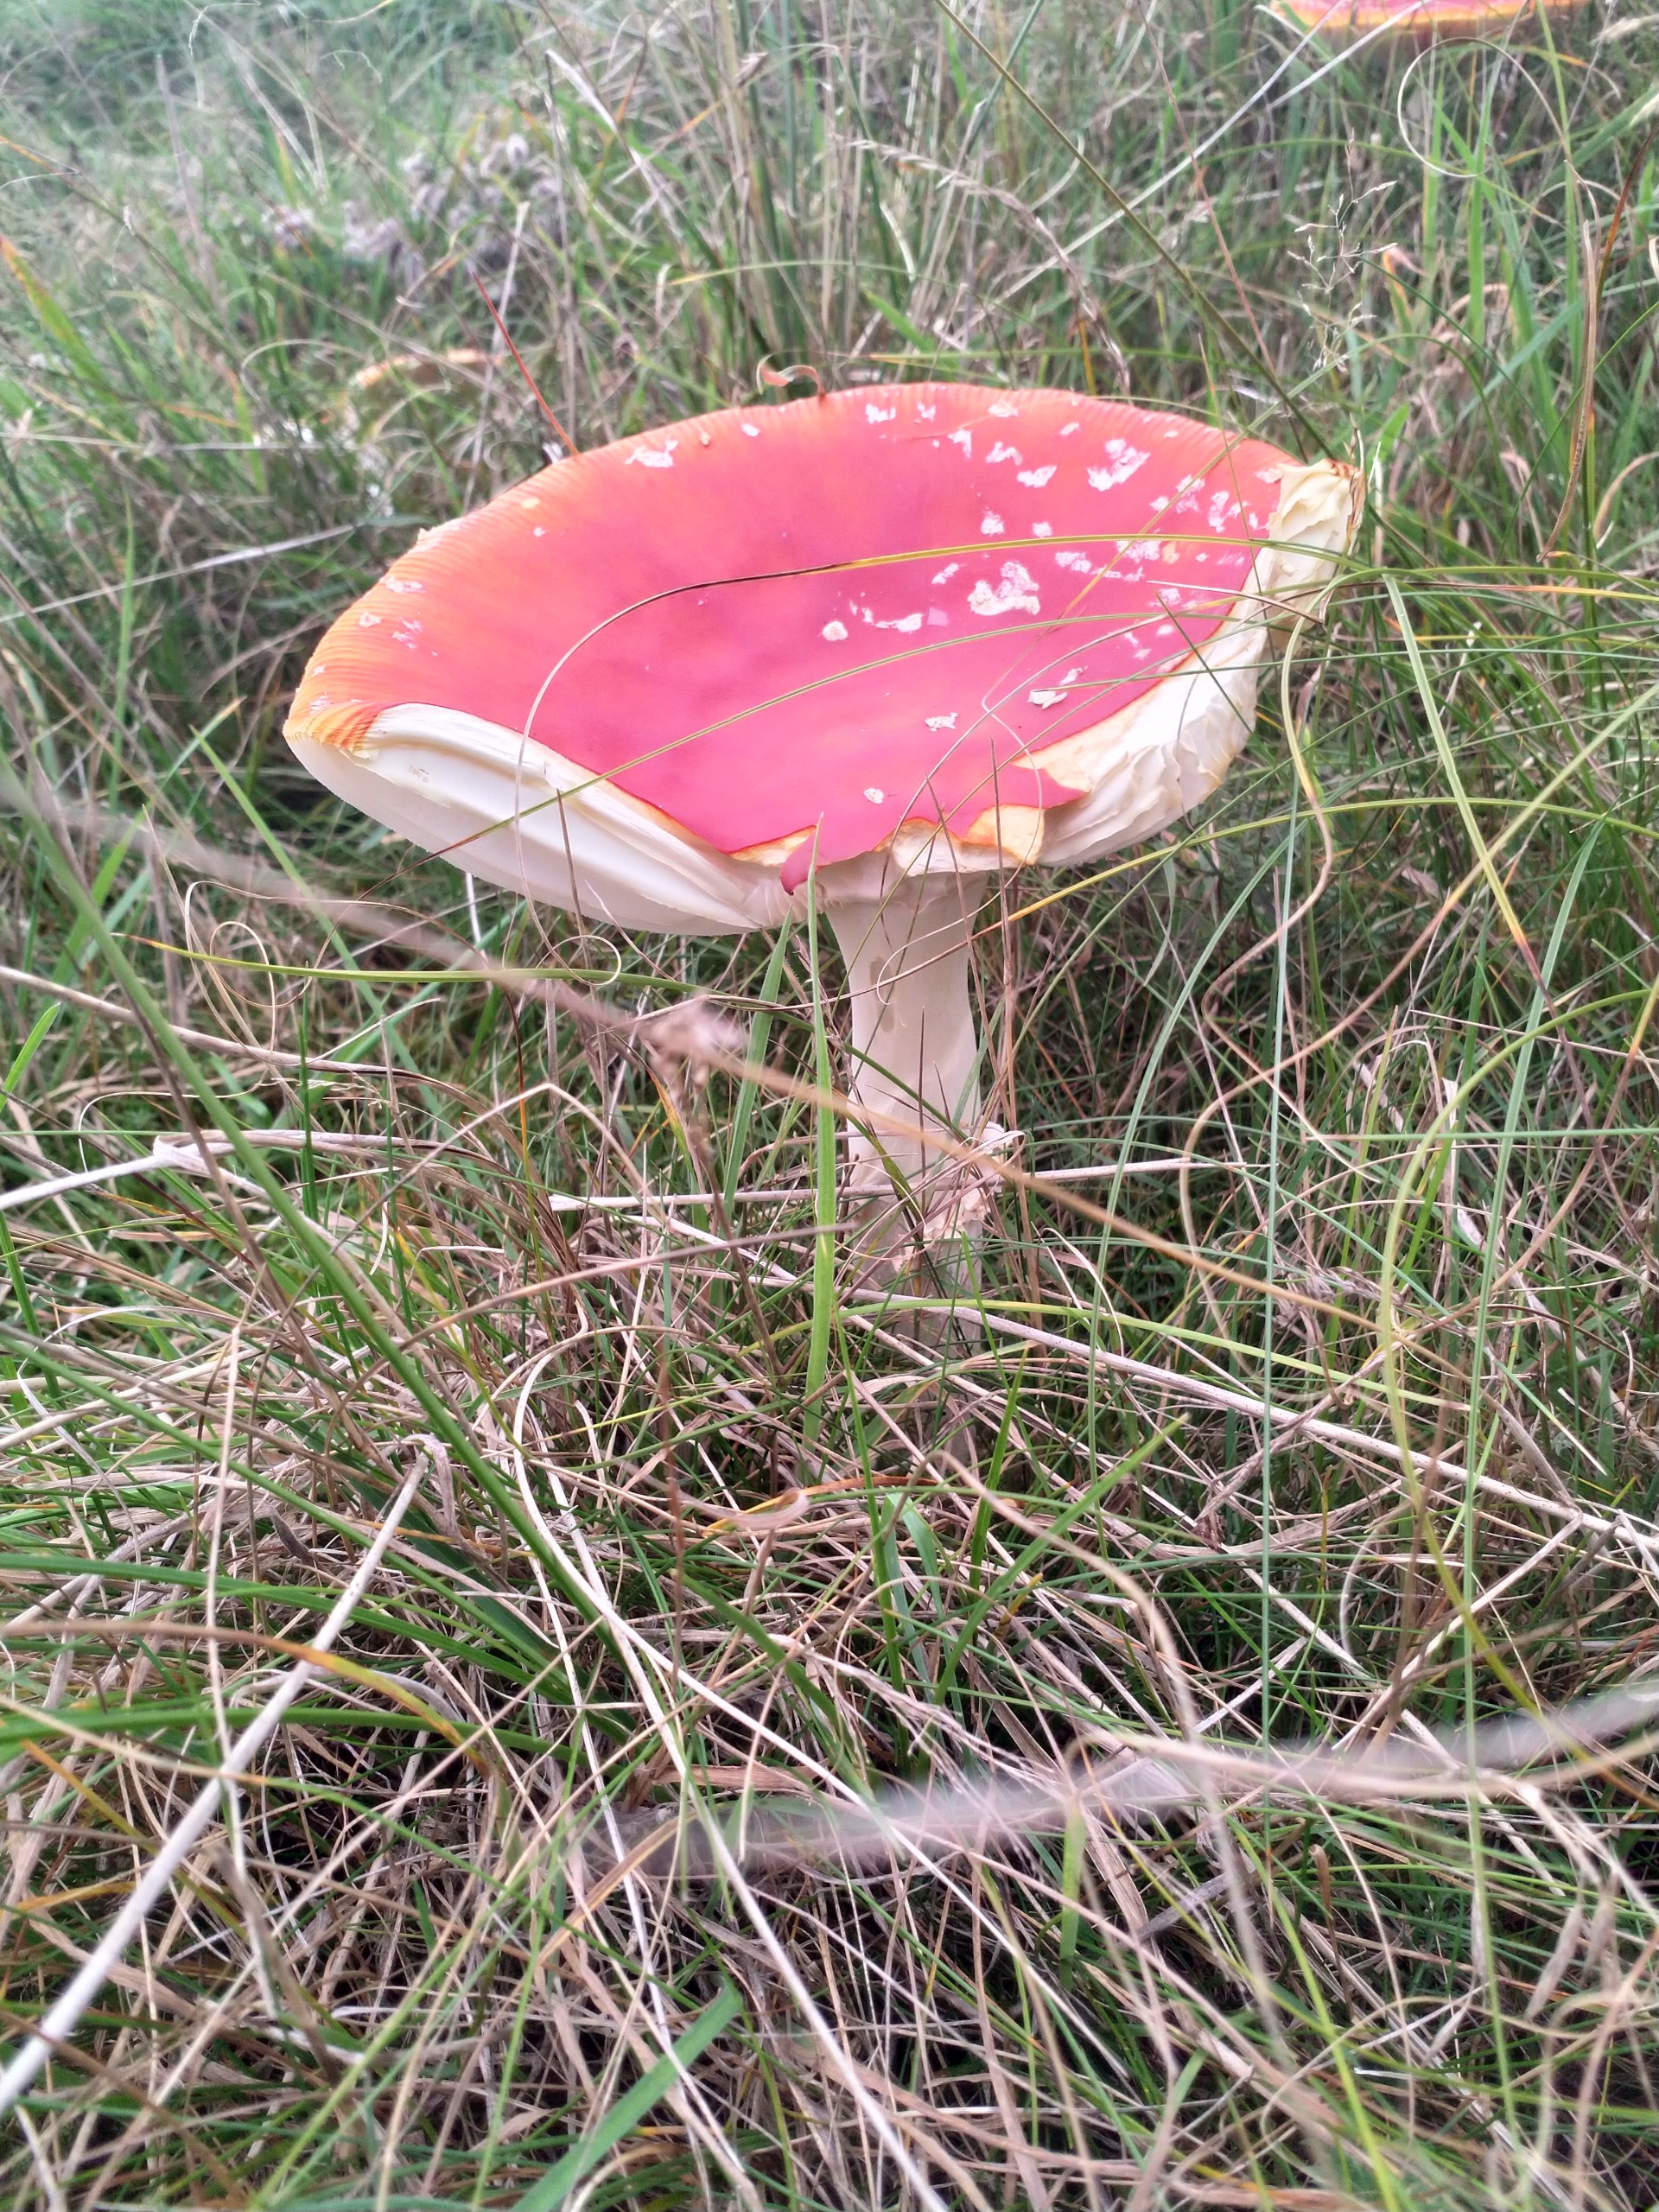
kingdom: Fungi
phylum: Basidiomycota
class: Agaricomycetes
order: Agaricales
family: Amanitaceae
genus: Amanita
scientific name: Amanita muscaria
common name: Rød fluesvamp
